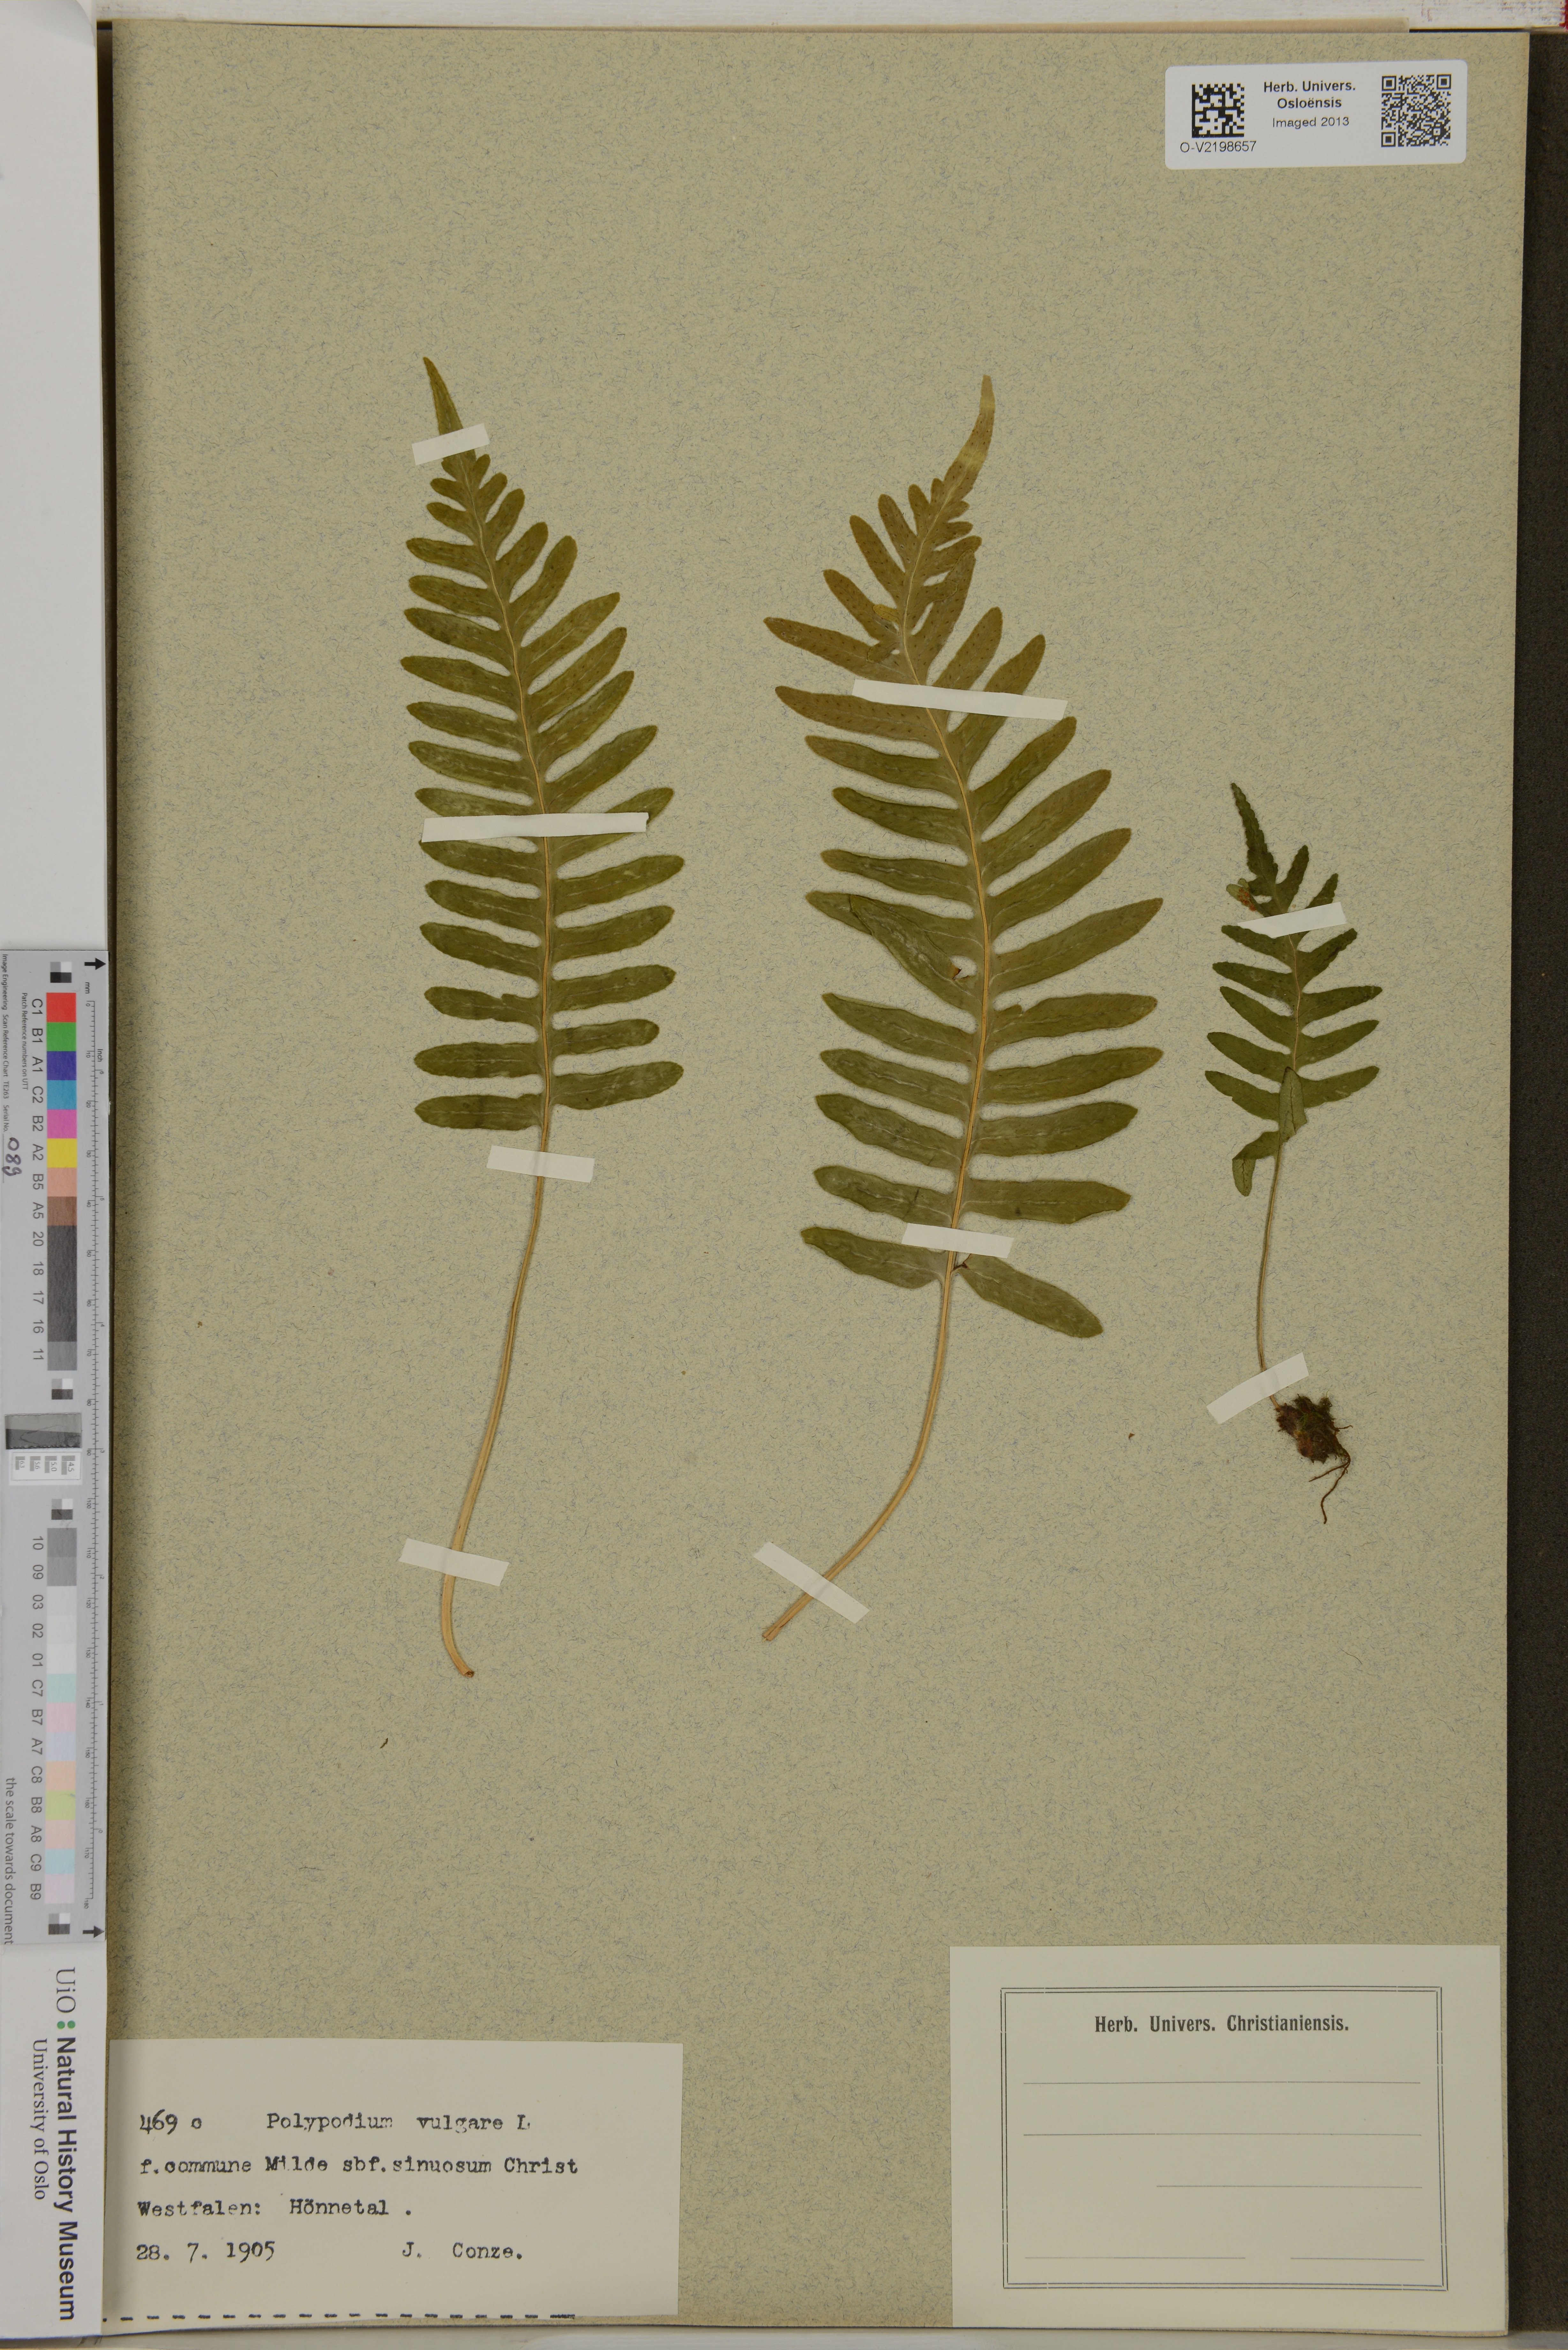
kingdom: Plantae
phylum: Tracheophyta
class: Polypodiopsida
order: Polypodiales
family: Polypodiaceae
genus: Polypodium
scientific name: Polypodium vulgare
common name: Common polypody
